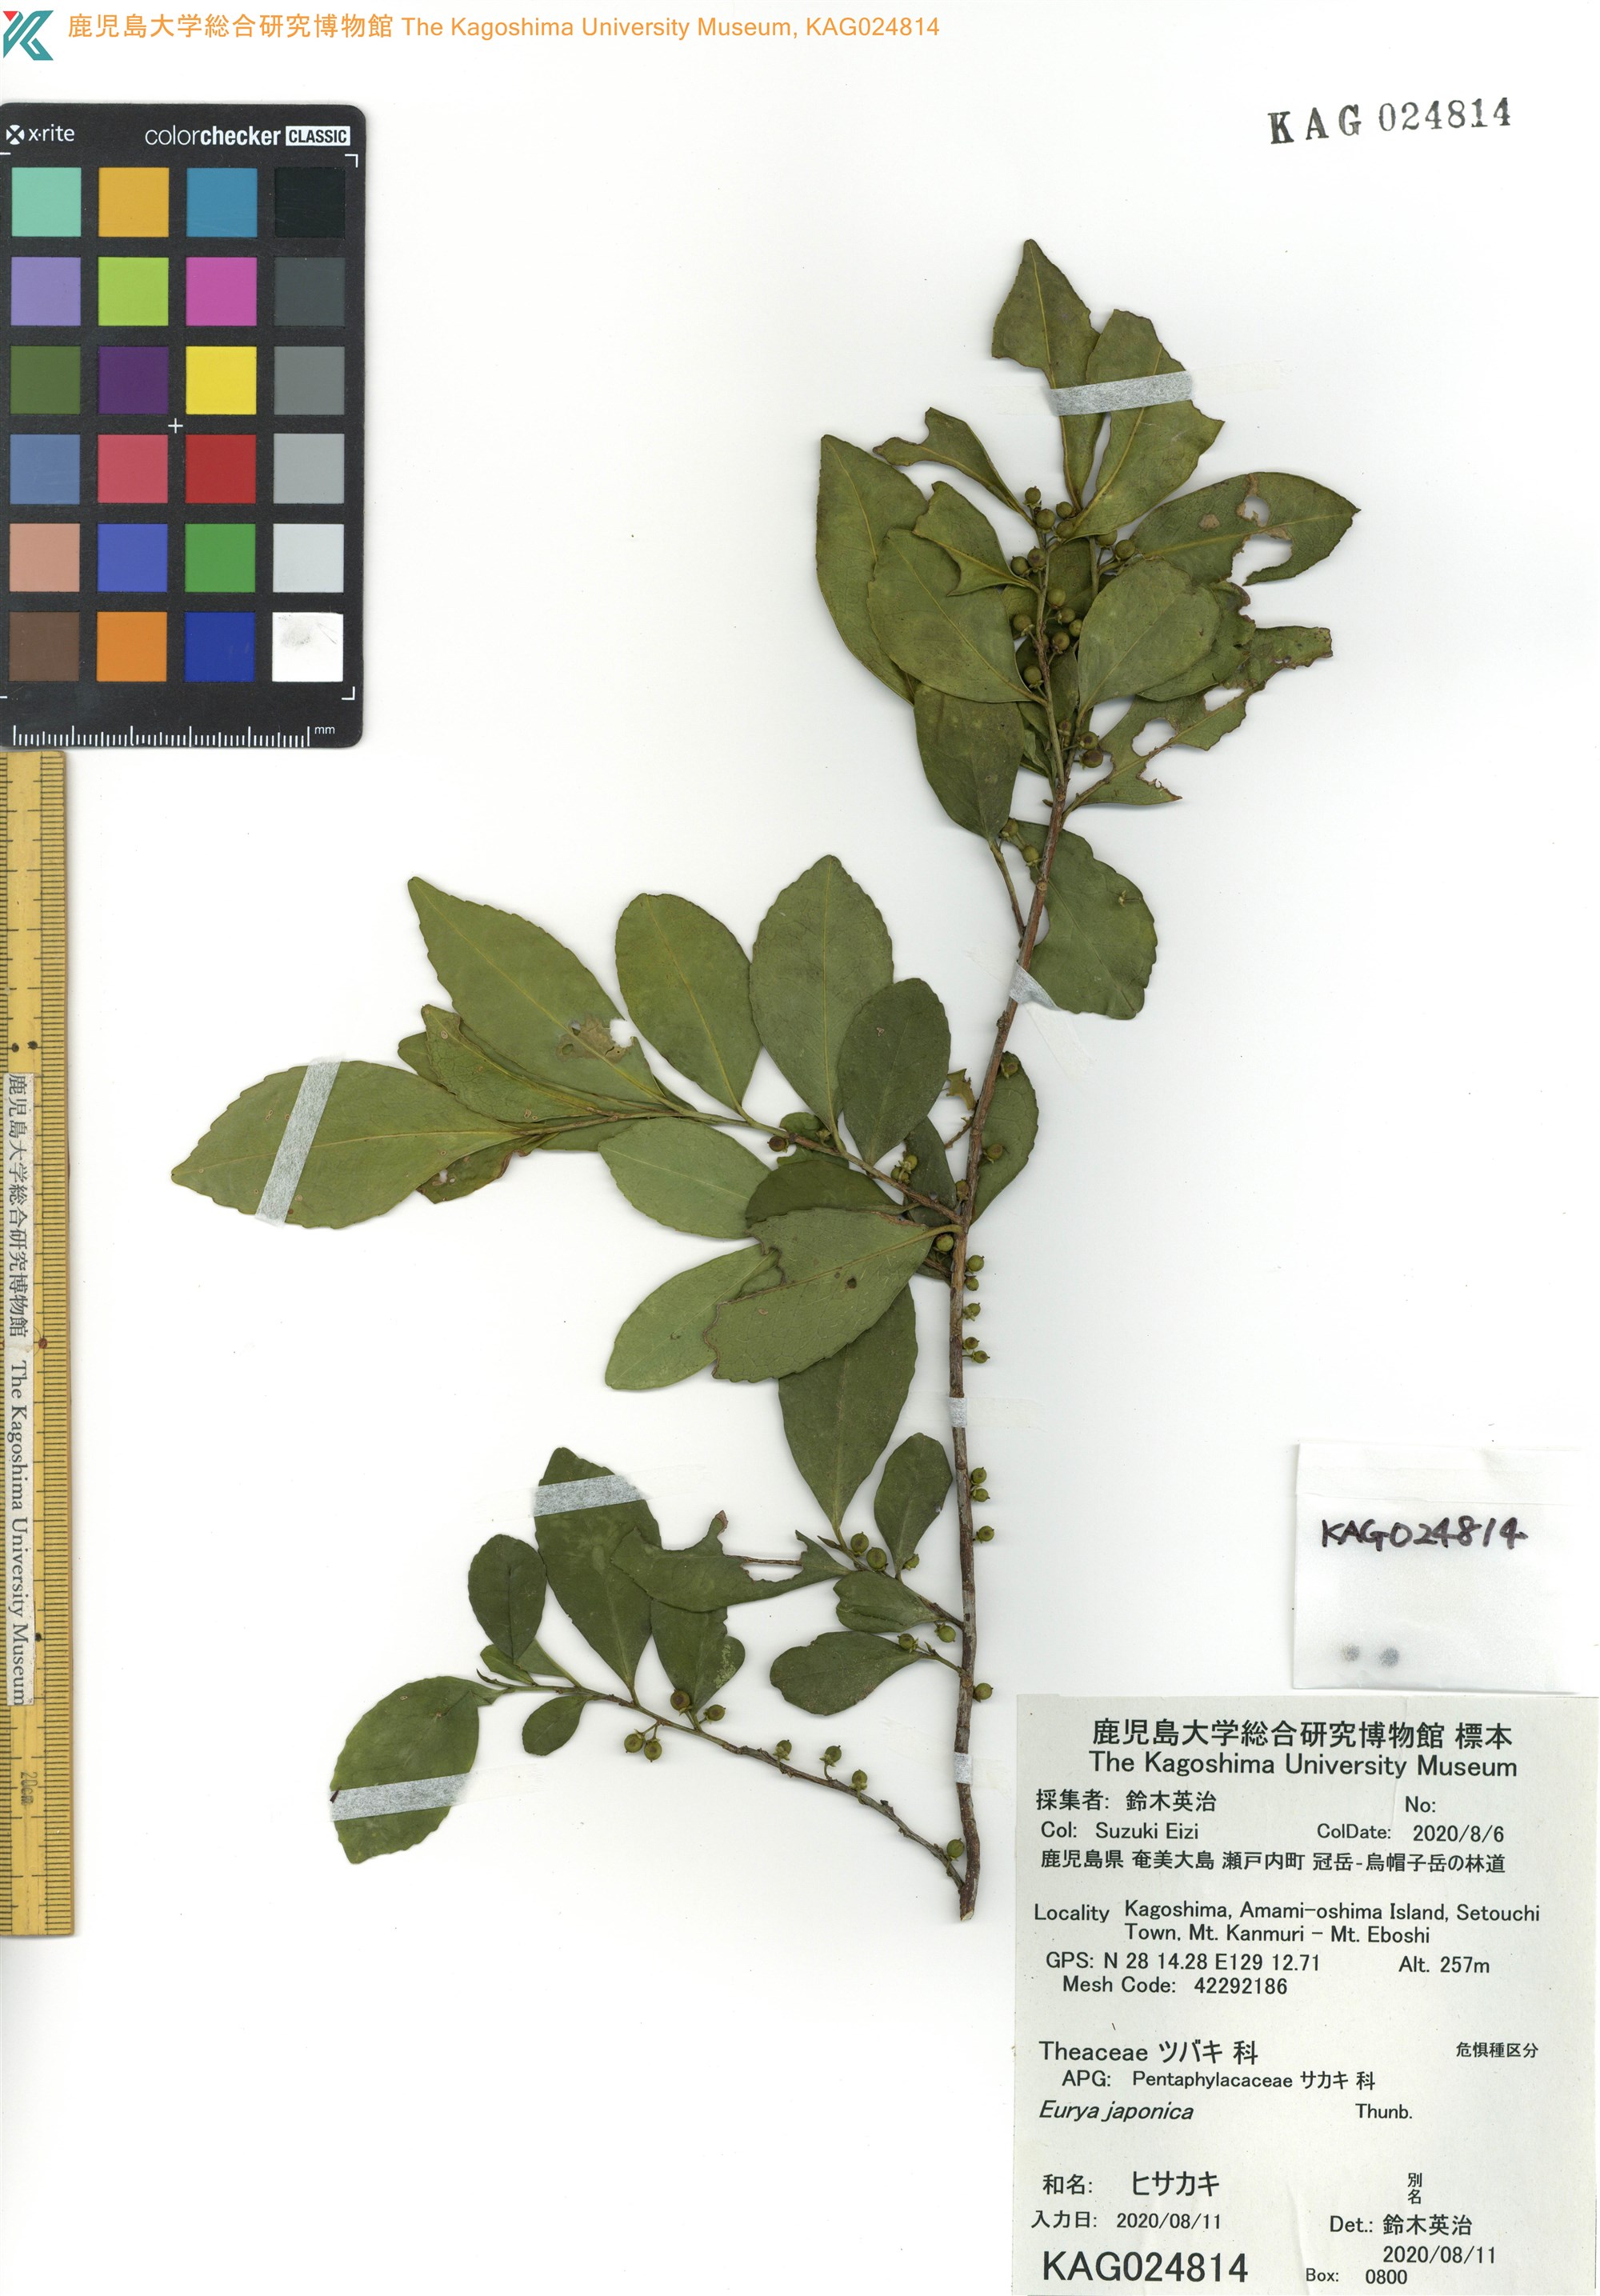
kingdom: Plantae
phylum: Tracheophyta
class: Magnoliopsida
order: Ericales
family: Pentaphylacaceae
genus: Eurya
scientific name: Eurya japonica
